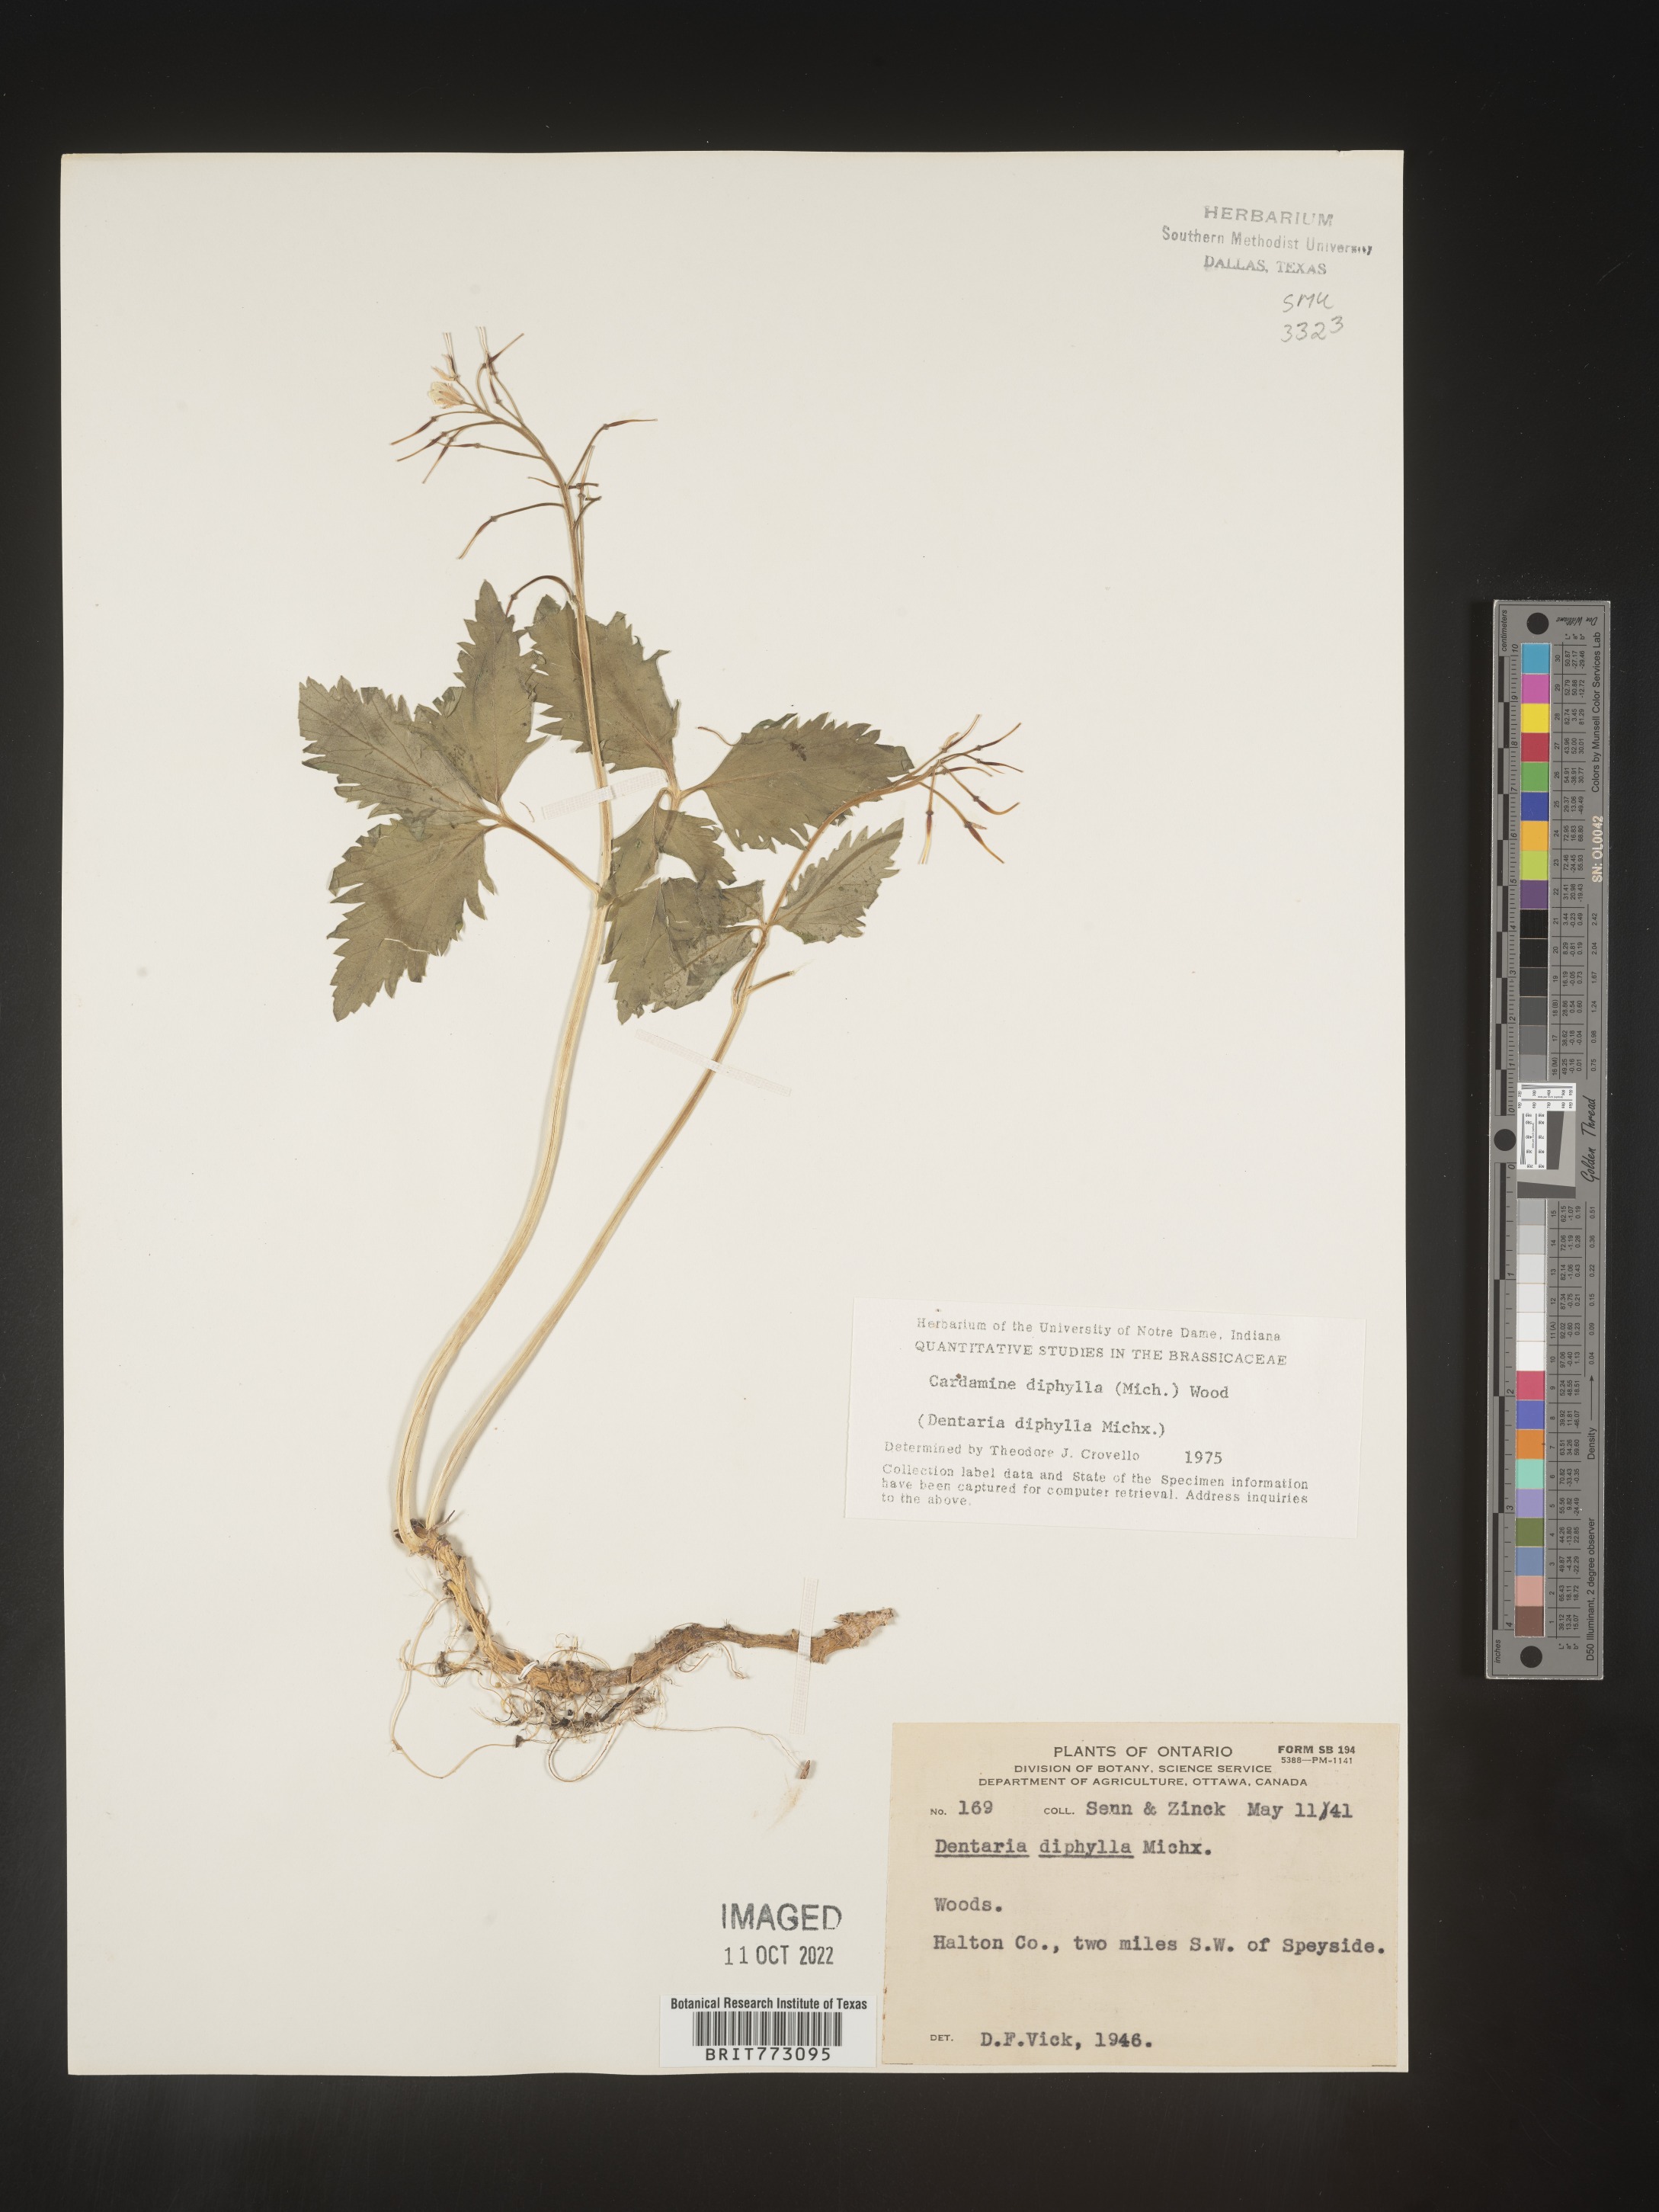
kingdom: Plantae
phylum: Tracheophyta
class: Magnoliopsida
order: Brassicales
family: Brassicaceae
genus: Cardamine
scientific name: Cardamine diphylla
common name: Broad-leaved toothwort
